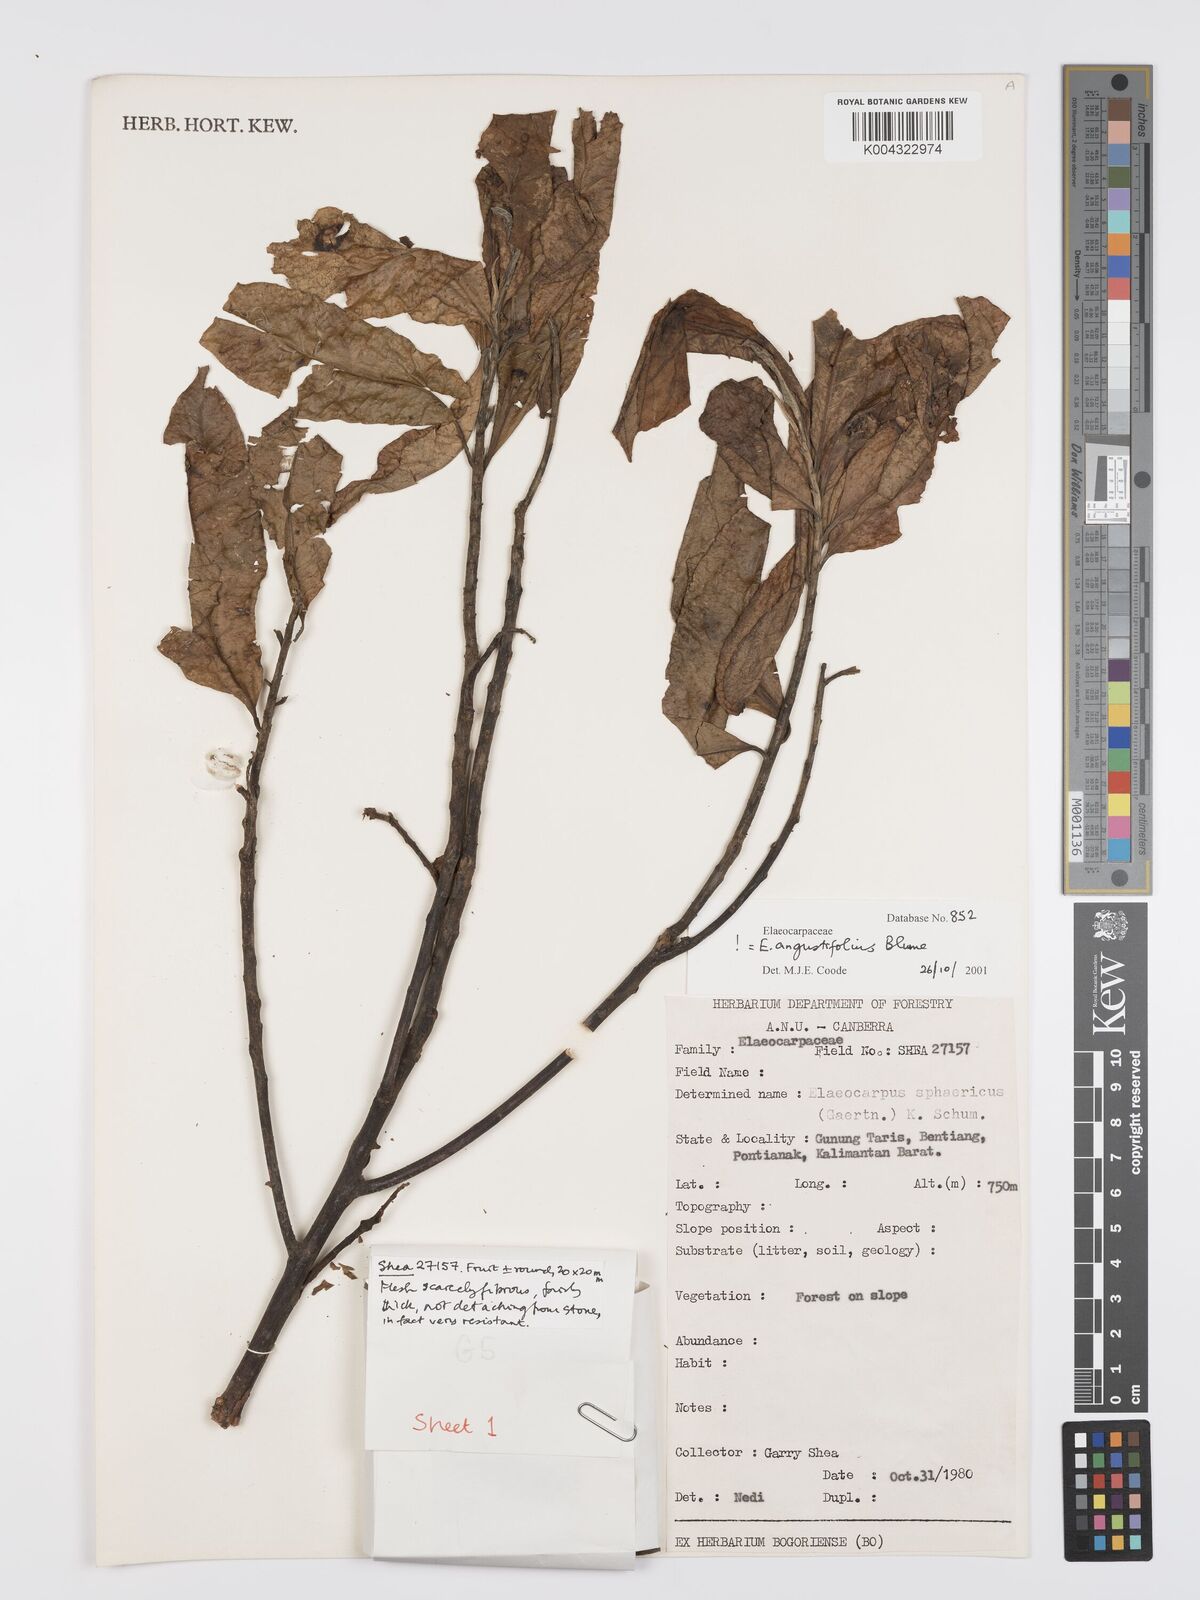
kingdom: Plantae
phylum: Tracheophyta
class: Magnoliopsida
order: Oxalidales
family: Elaeocarpaceae
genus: Elaeocarpus
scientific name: Elaeocarpus
